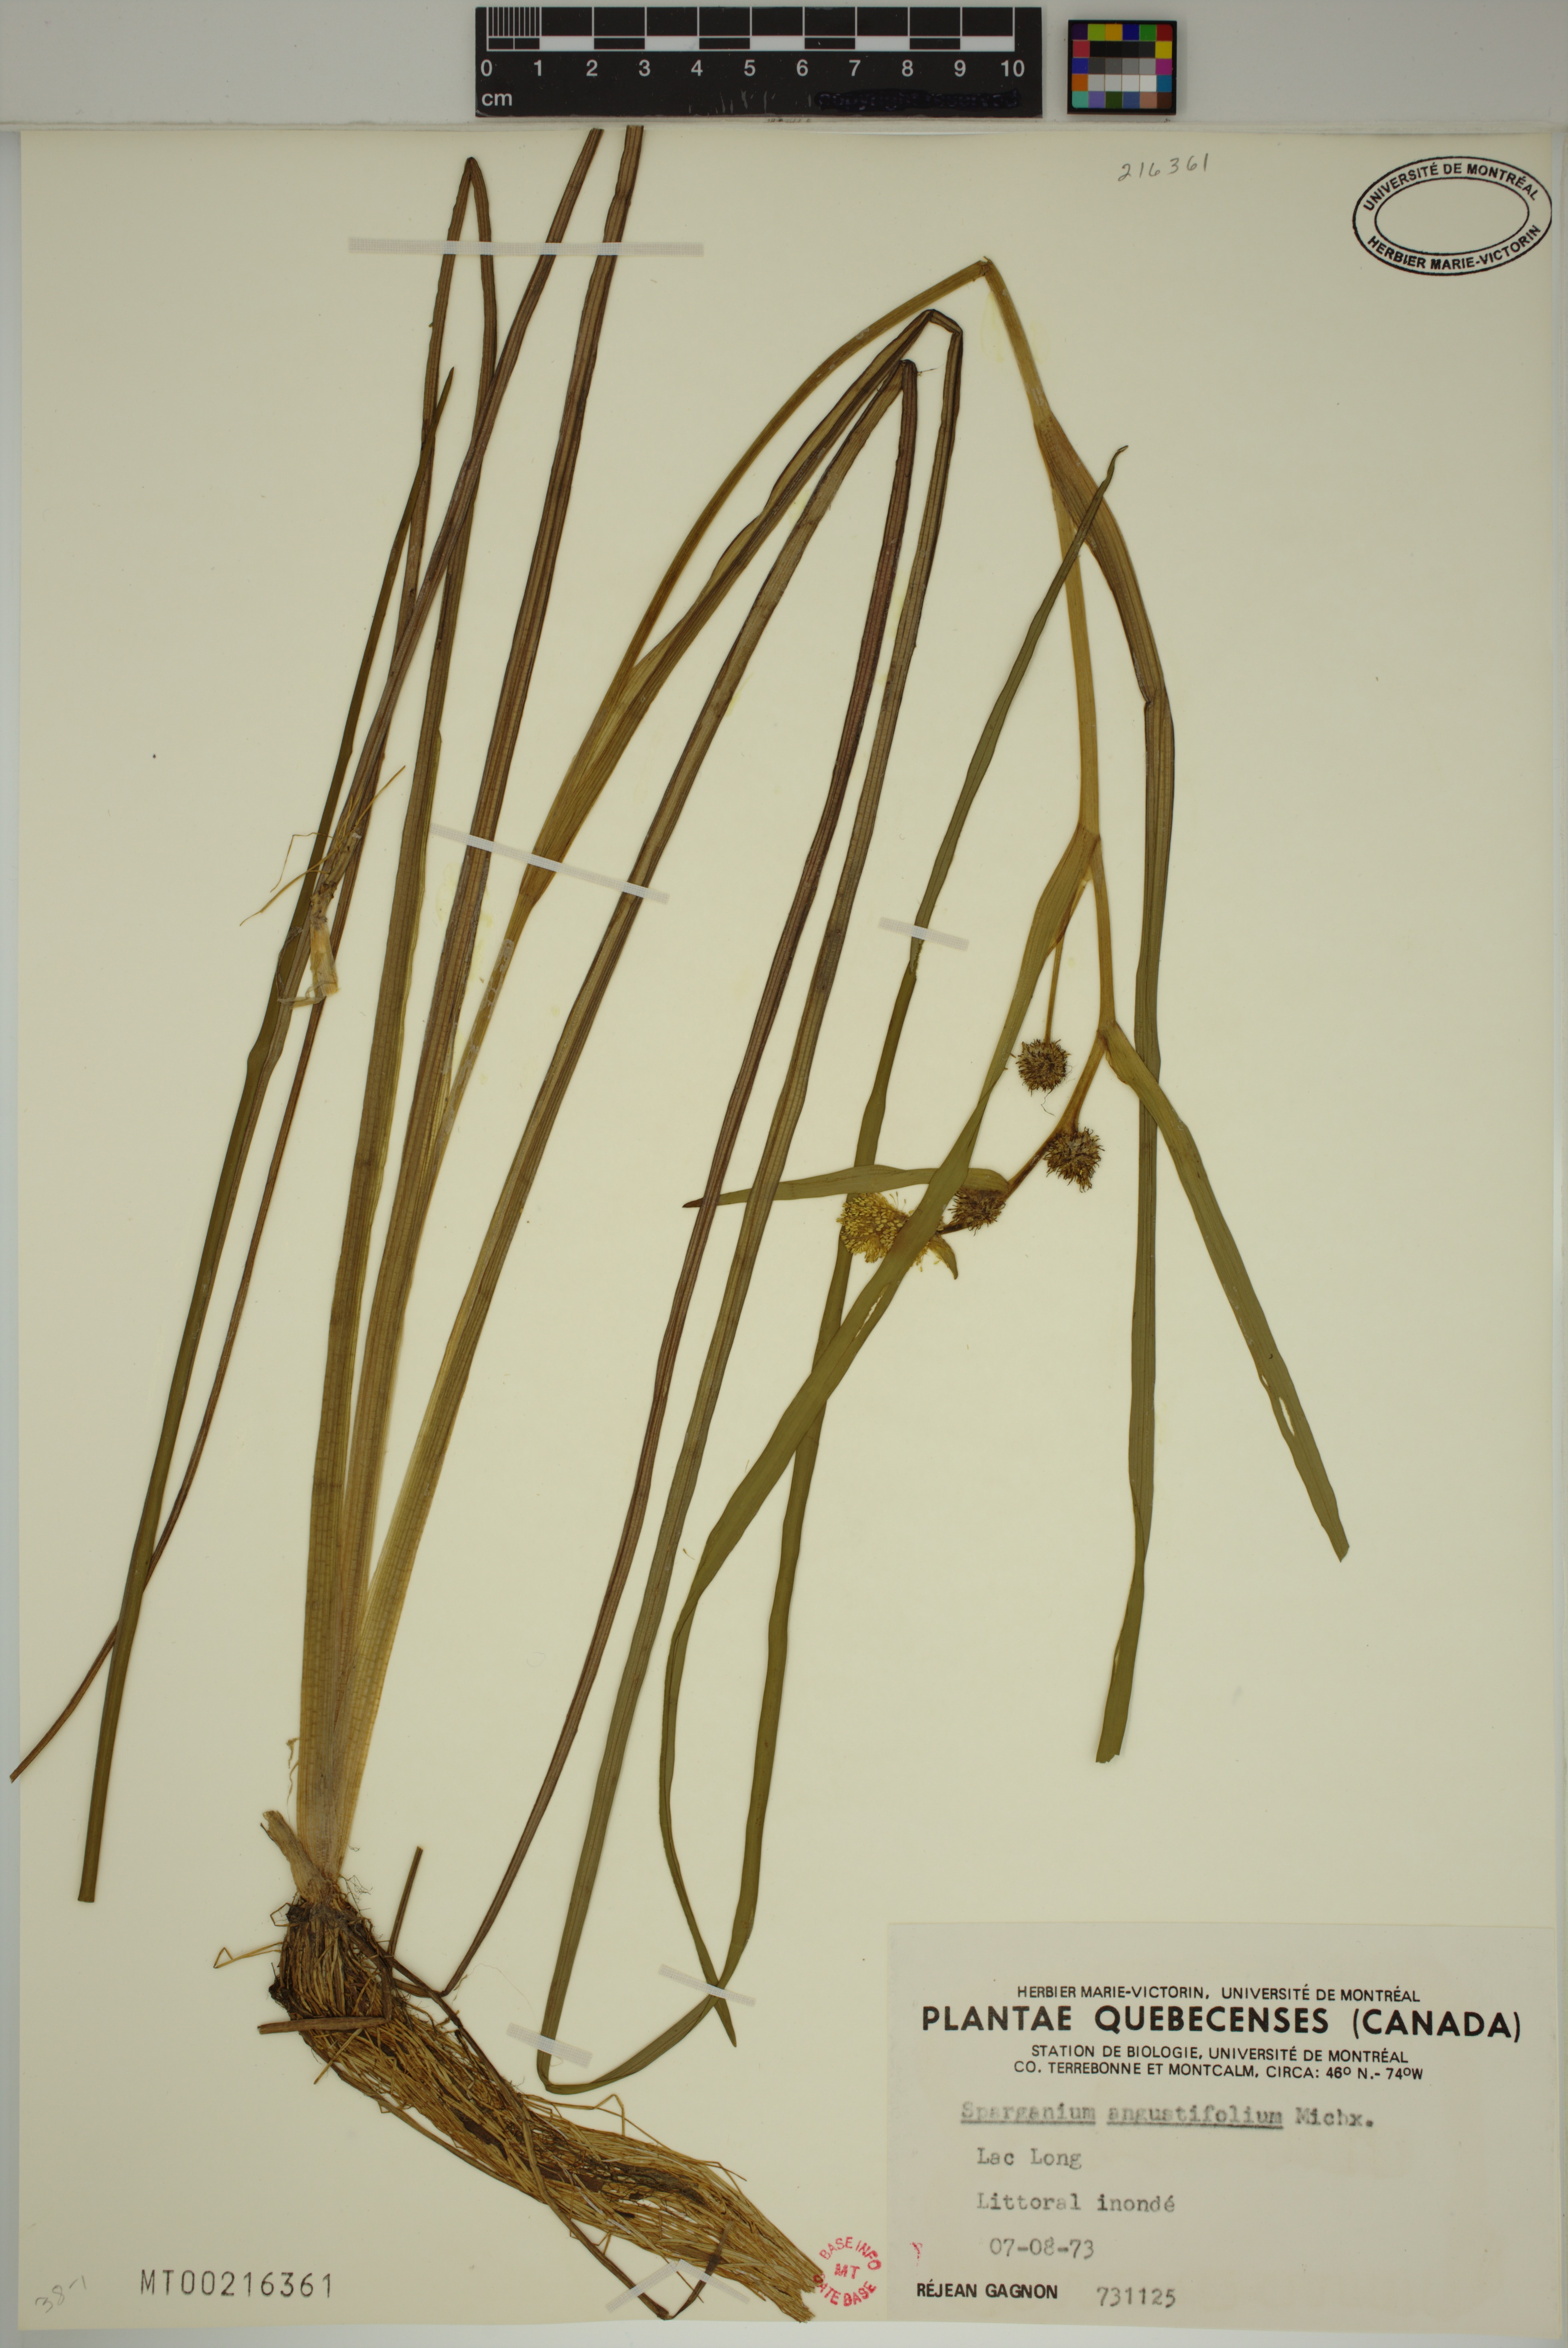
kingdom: Plantae
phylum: Tracheophyta
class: Liliopsida
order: Poales
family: Typhaceae
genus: Sparganium
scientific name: Sparganium angustifolium
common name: Floating bur-reed
